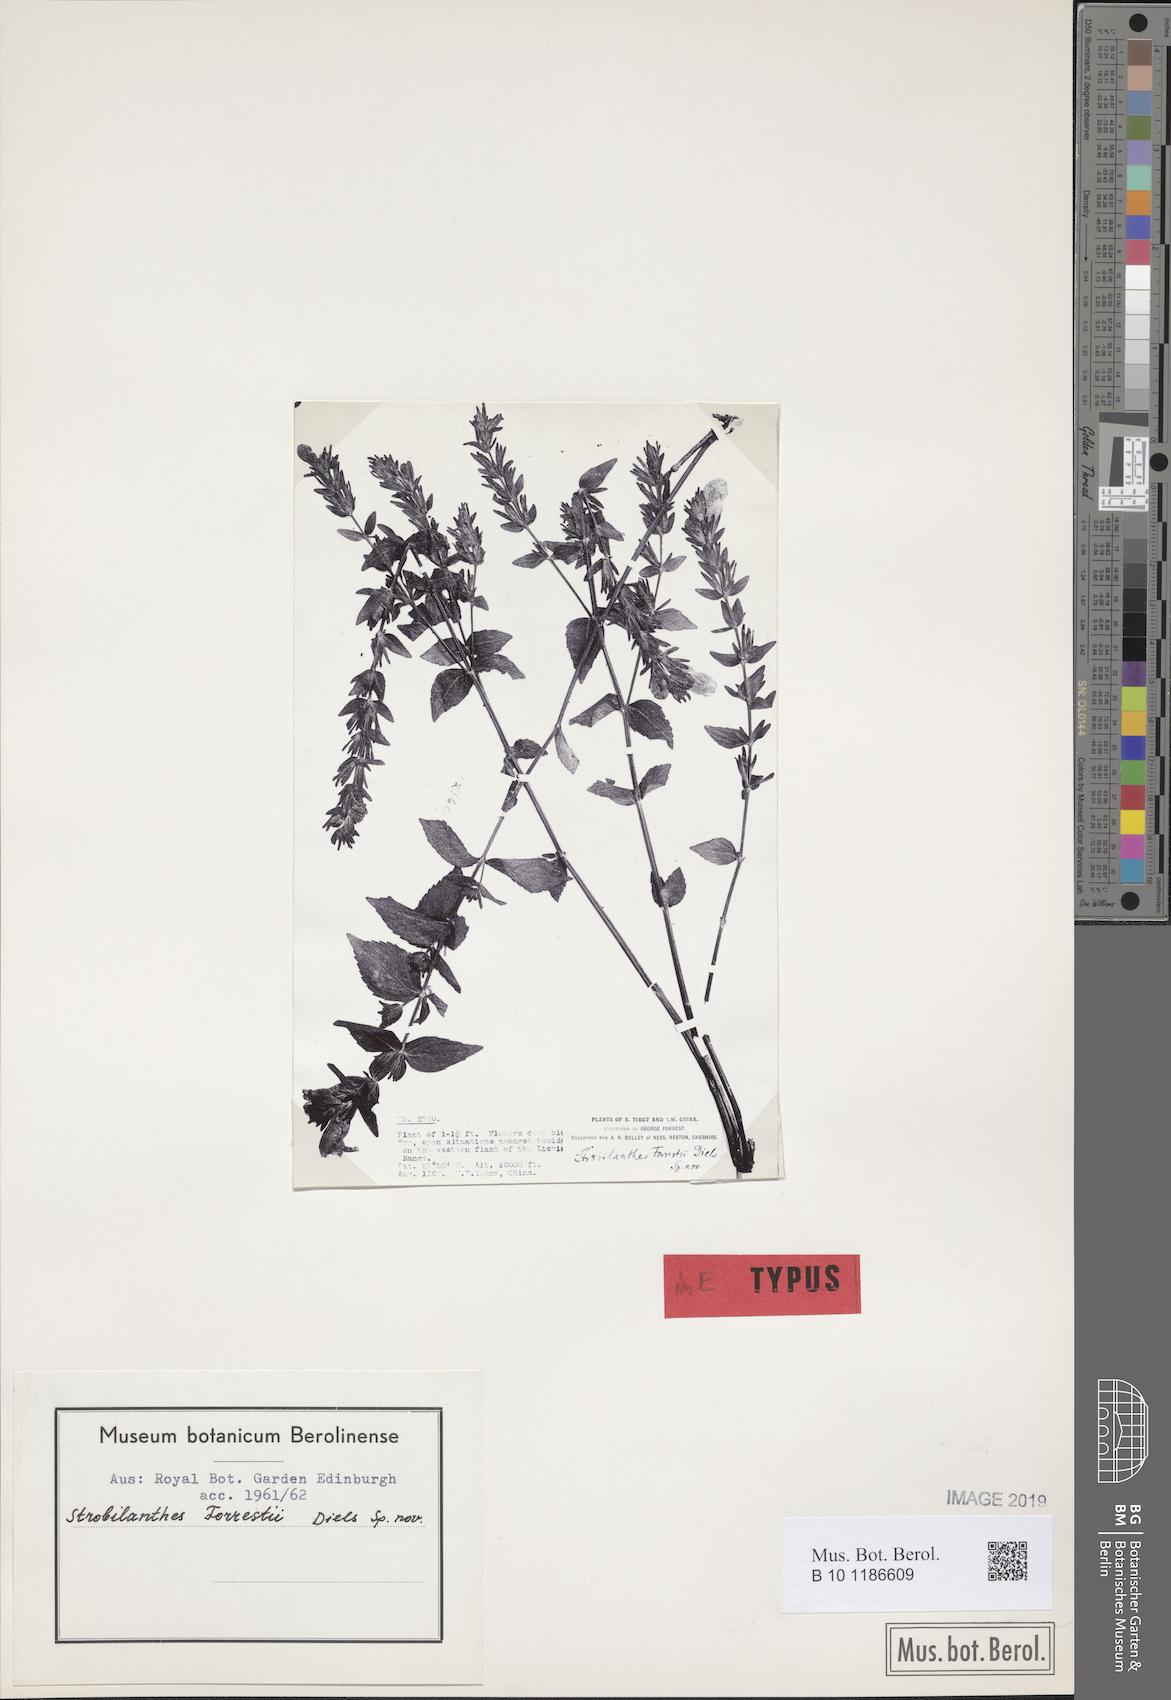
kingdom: Plantae
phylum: Tracheophyta
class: Magnoliopsida
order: Lamiales
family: Acanthaceae
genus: Strobilanthes
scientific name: Strobilanthes forrestii
